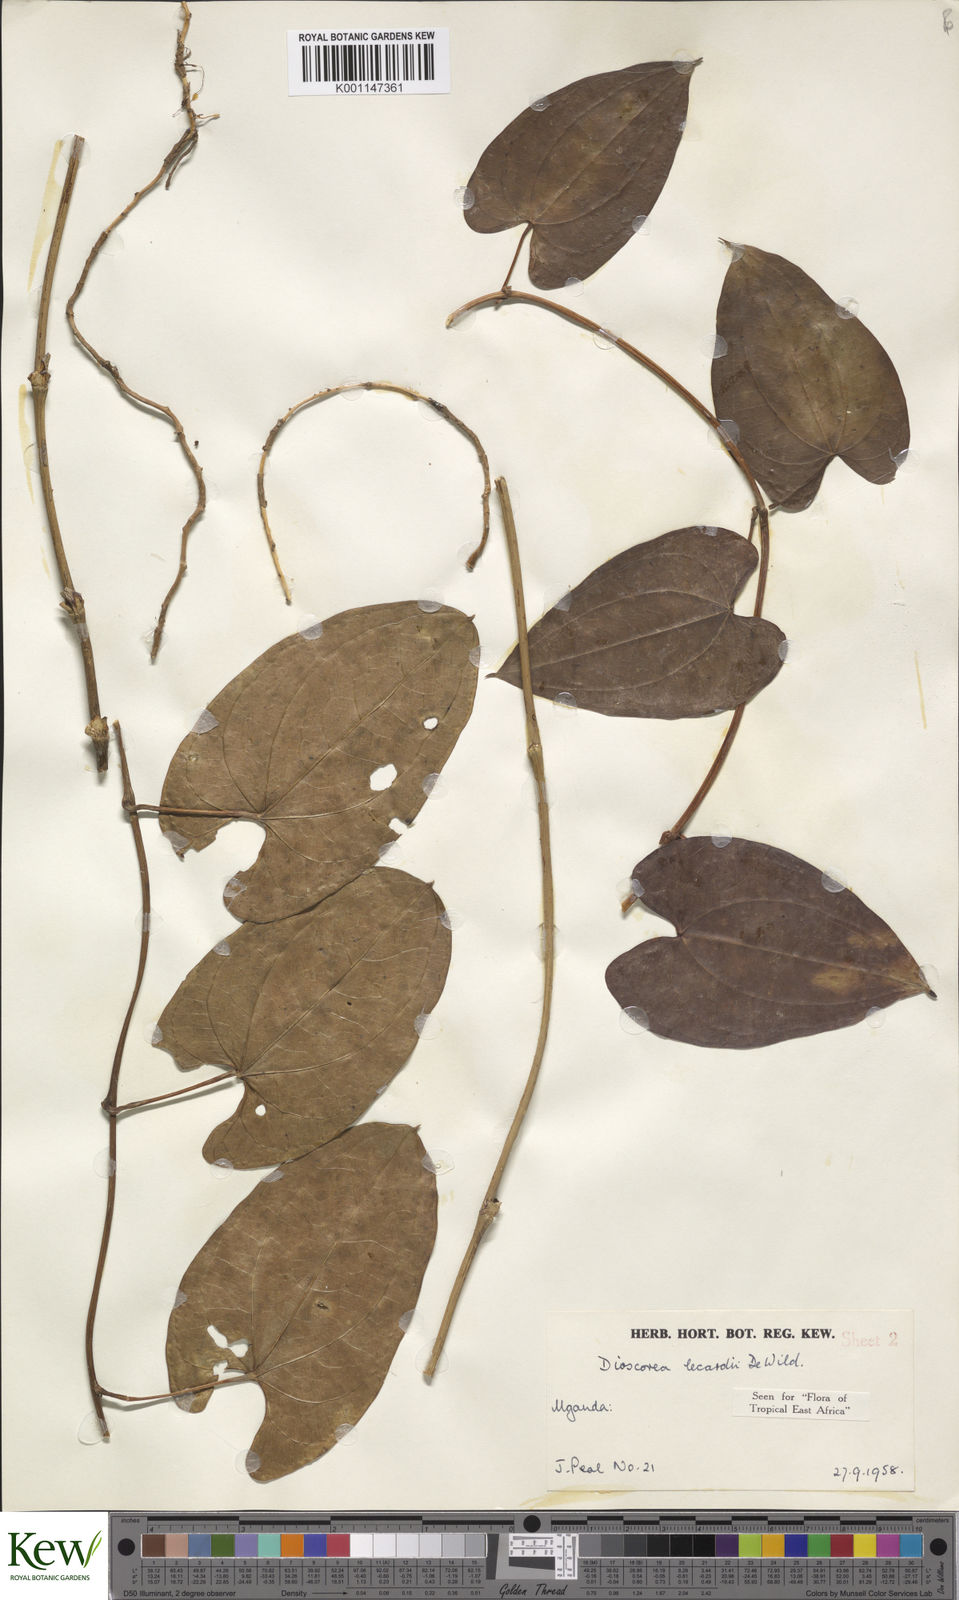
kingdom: Plantae
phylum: Tracheophyta
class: Liliopsida
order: Dioscoreales
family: Dioscoreaceae
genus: Dioscorea
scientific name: Dioscorea sagittifolia
